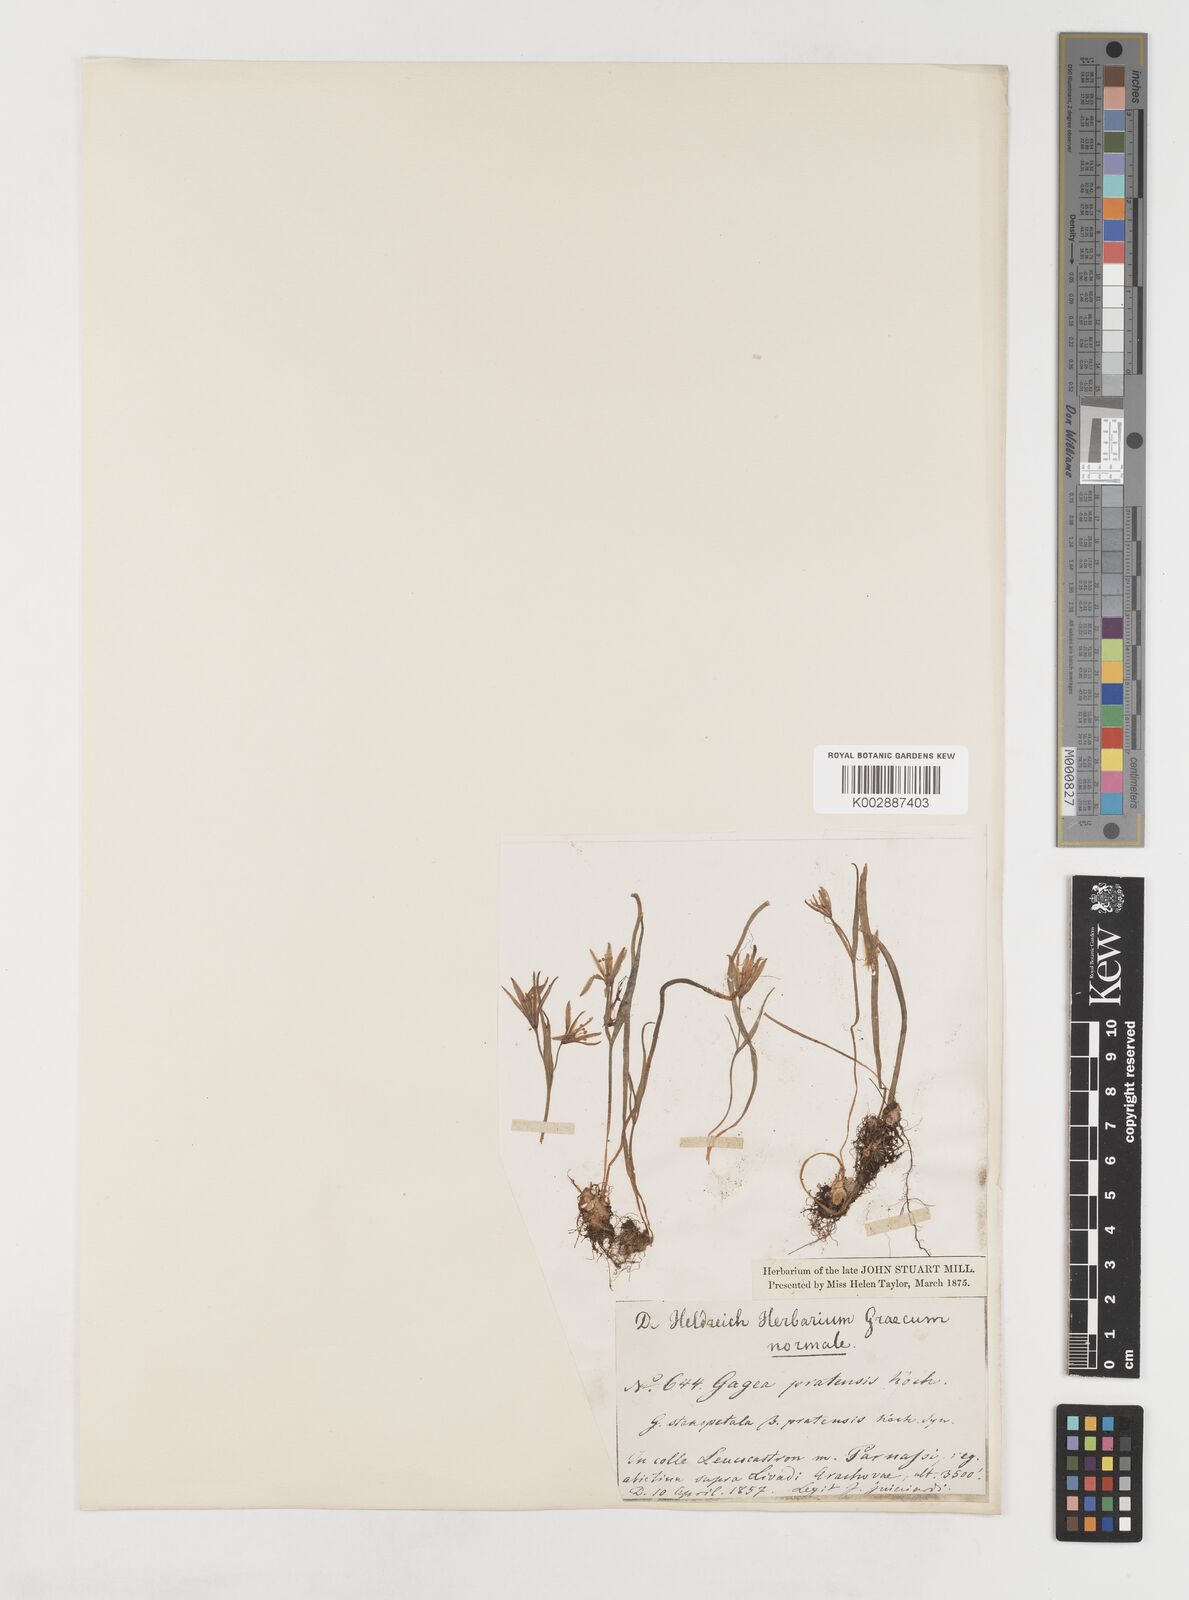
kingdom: Plantae
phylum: Tracheophyta
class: Liliopsida
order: Liliales
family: Liliaceae
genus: Gagea
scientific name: Gagea pratensis
